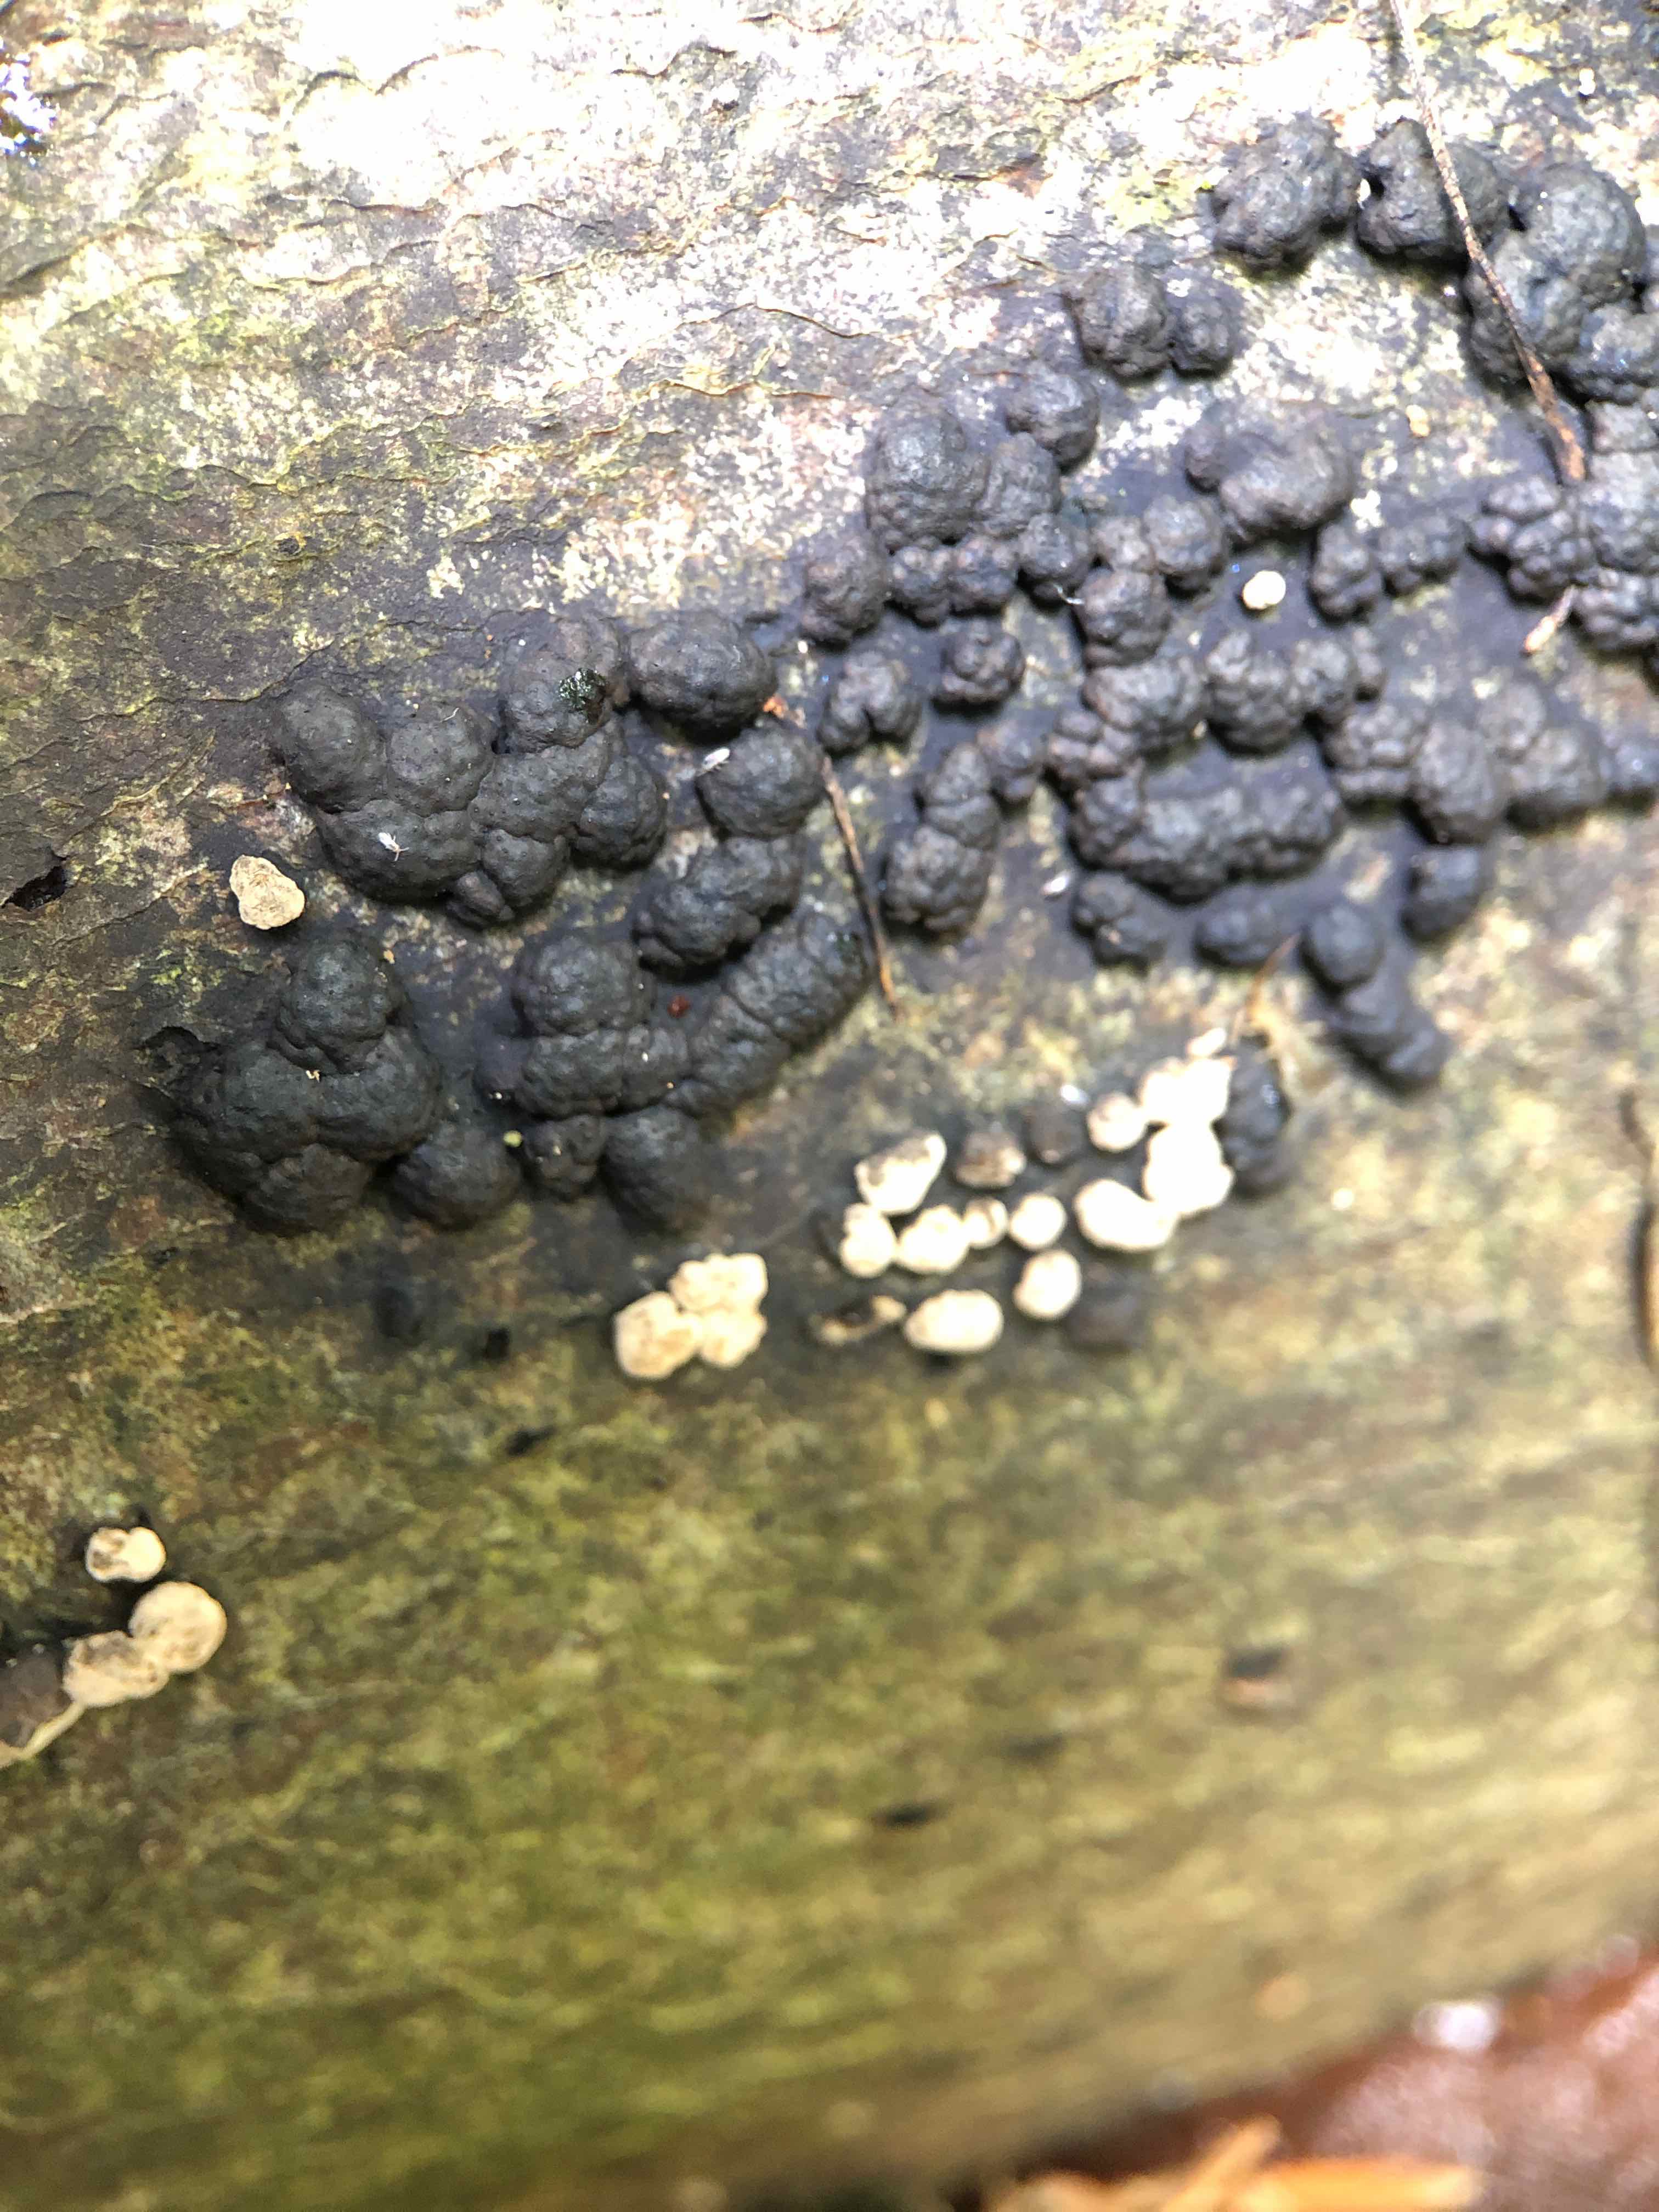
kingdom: Fungi
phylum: Ascomycota
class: Sordariomycetes
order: Xylariales
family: Hypoxylaceae
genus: Jackrogersella
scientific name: Jackrogersella cohaerens
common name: sammenflydende kulbær
